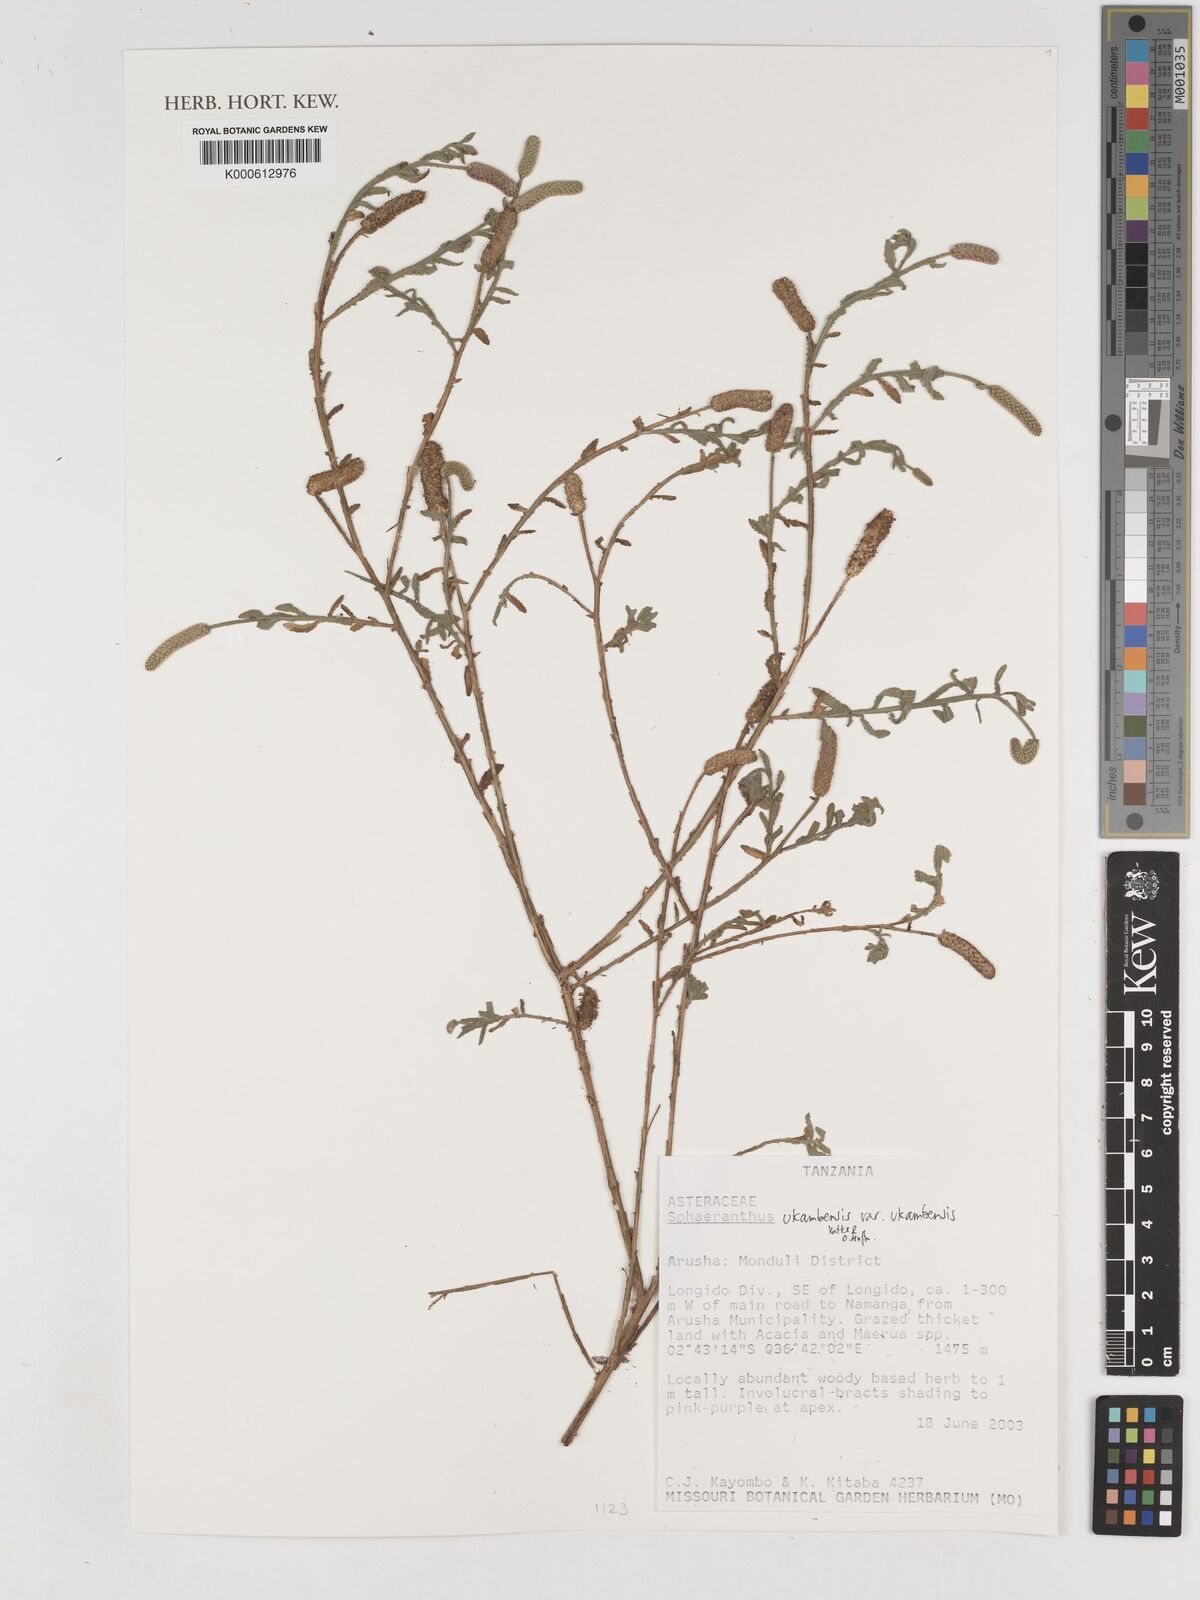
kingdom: Plantae
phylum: Tracheophyta
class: Magnoliopsida
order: Asterales
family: Asteraceae
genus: Sphaeranthus
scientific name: Sphaeranthus ukambensis
